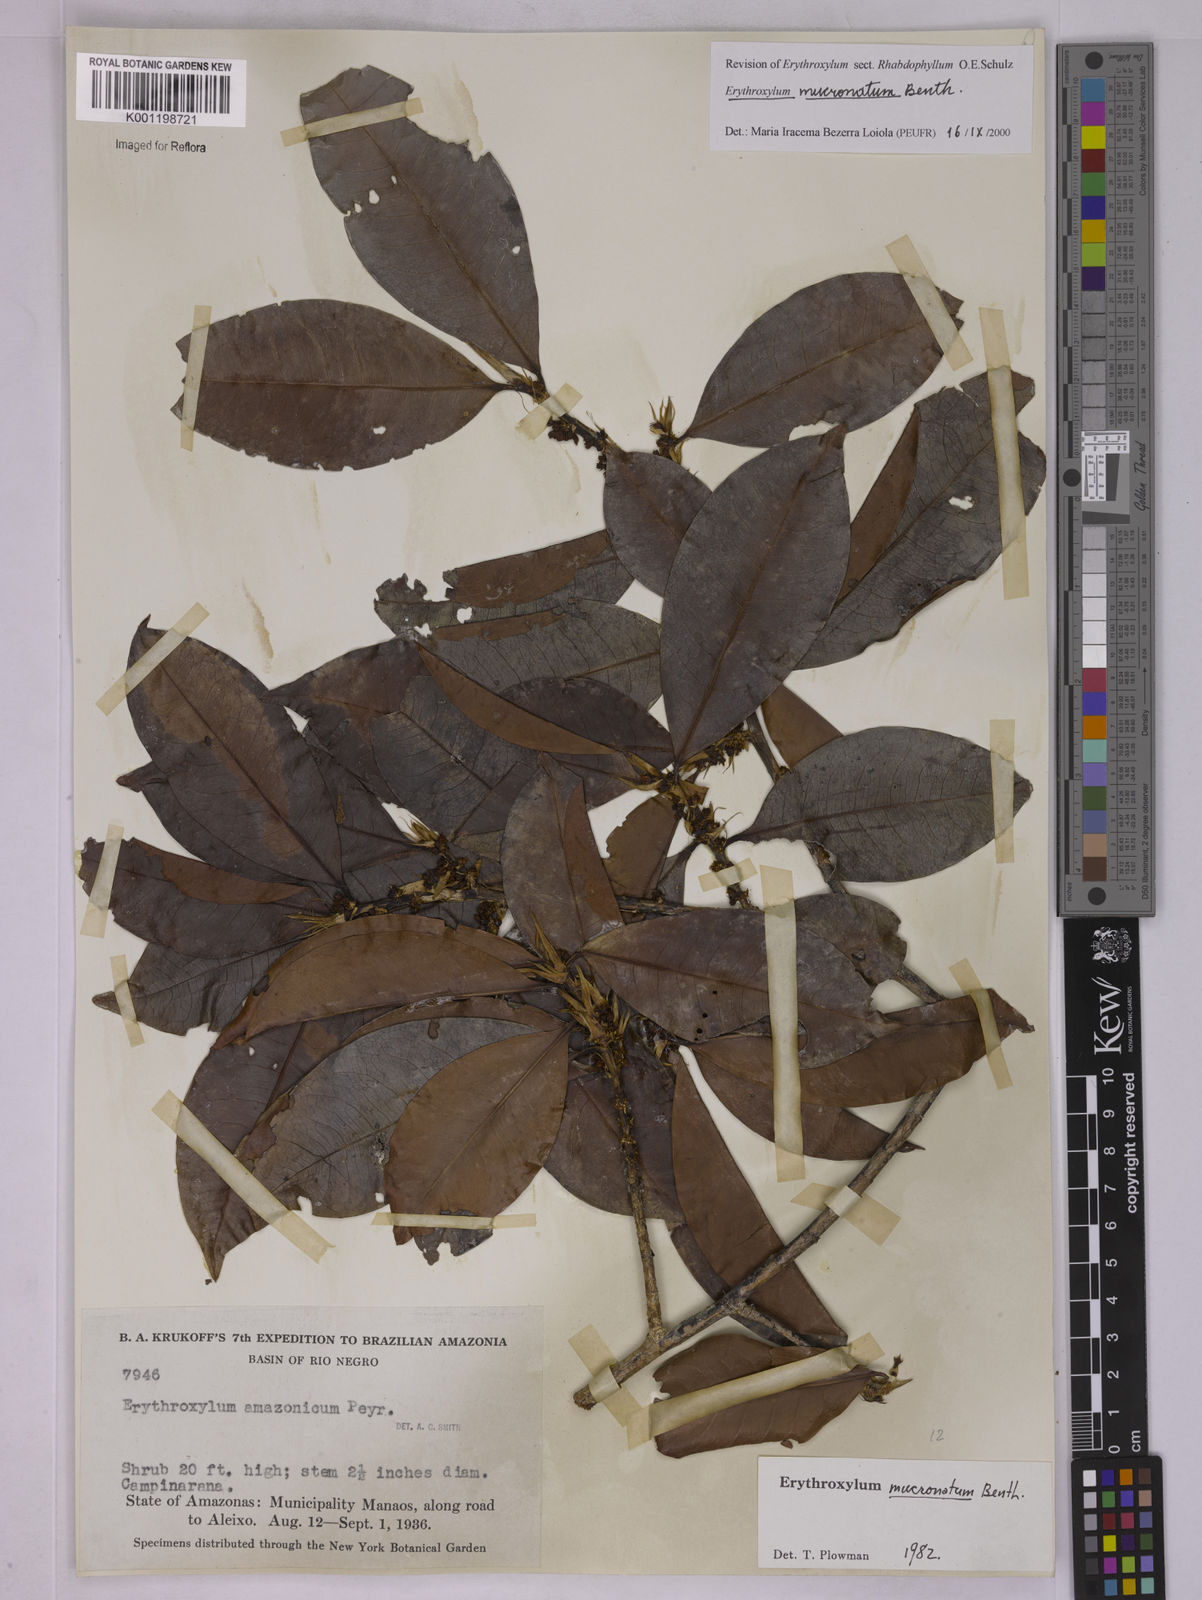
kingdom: Plantae
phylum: Tracheophyta
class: Magnoliopsida
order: Malpighiales
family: Erythroxylaceae
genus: Erythroxylum
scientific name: Erythroxylum mucronatum
